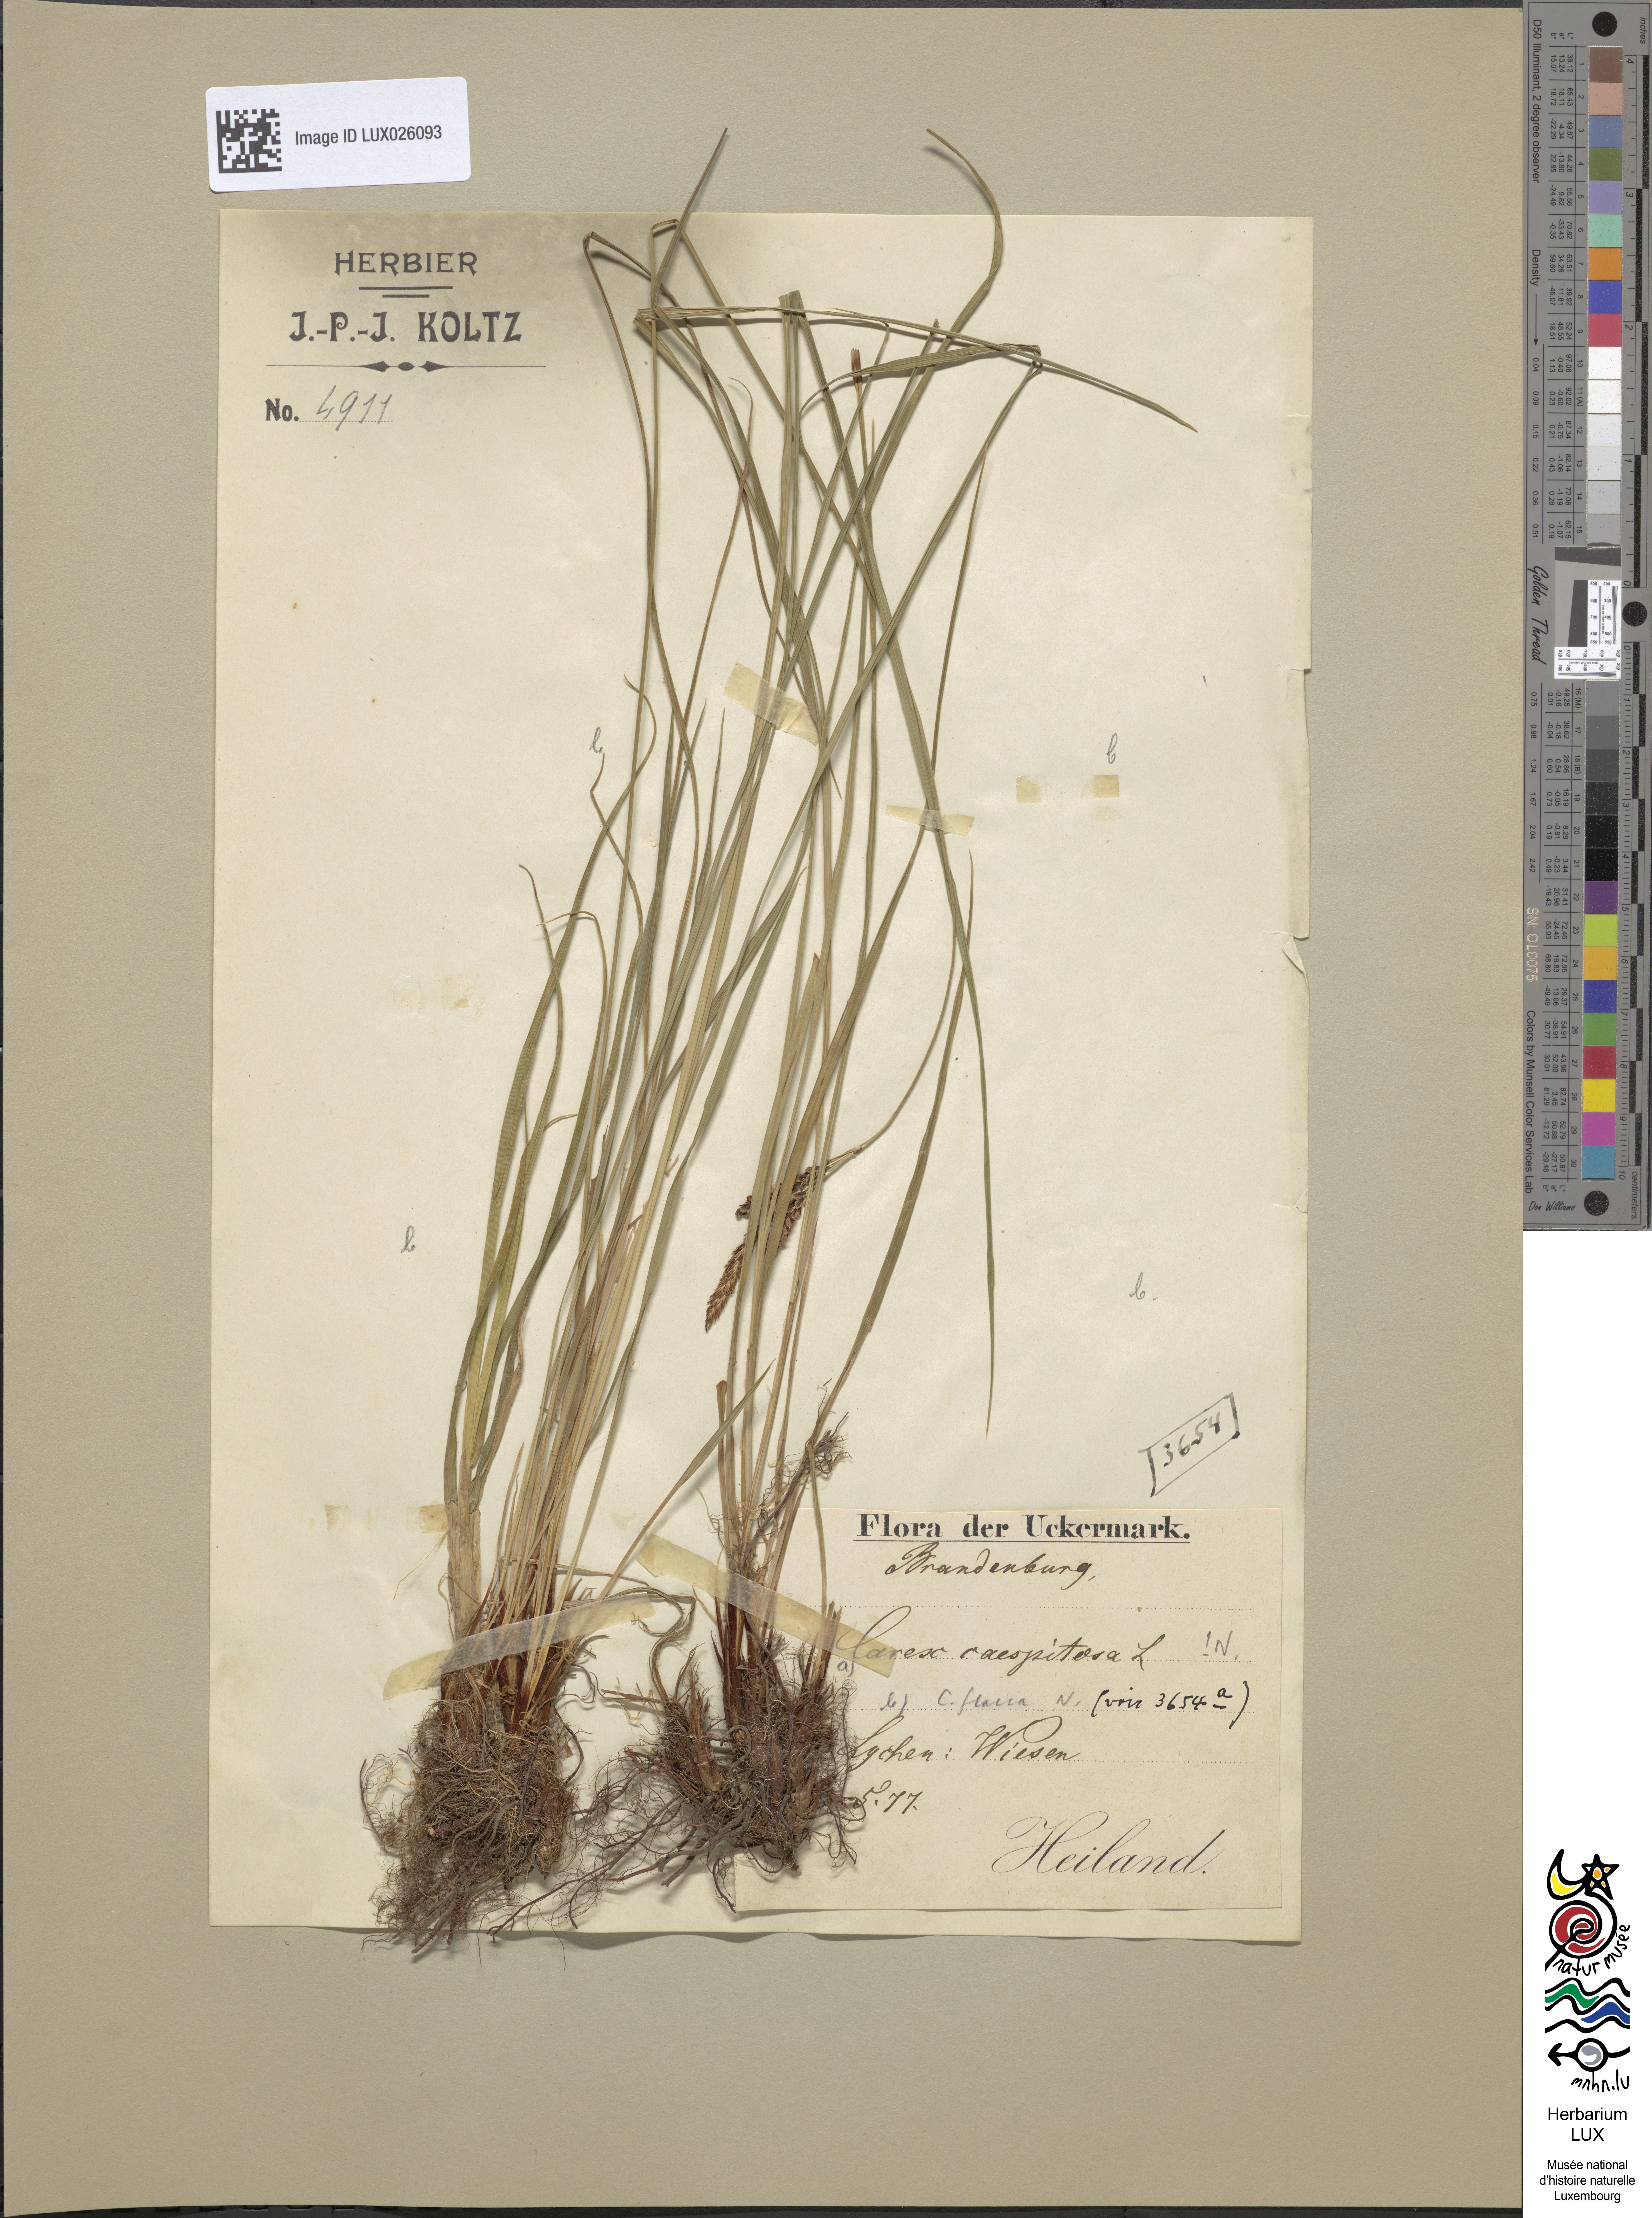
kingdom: Plantae
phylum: Tracheophyta
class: Liliopsida
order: Poales
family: Cyperaceae
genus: Carex
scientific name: Carex cespitosa
